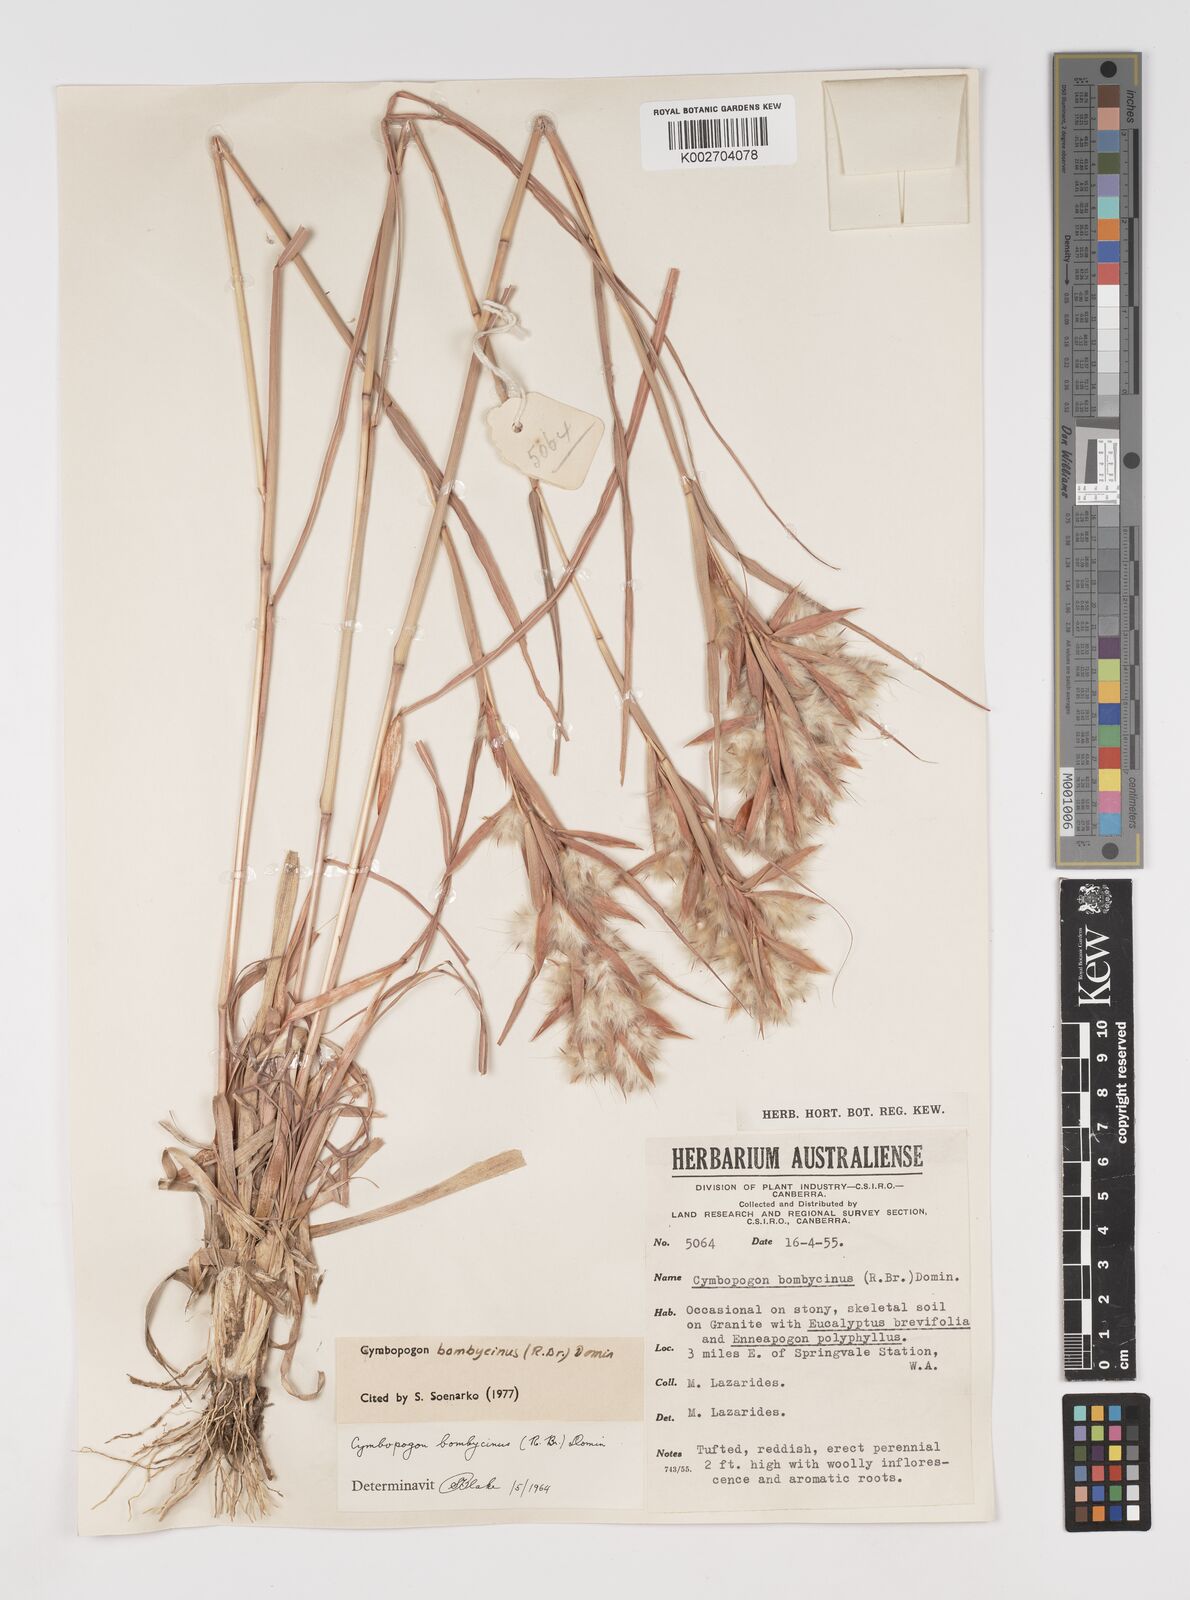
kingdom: Plantae
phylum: Tracheophyta
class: Liliopsida
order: Poales
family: Poaceae
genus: Cymbopogon
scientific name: Cymbopogon bombycinus
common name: Citronella grass
